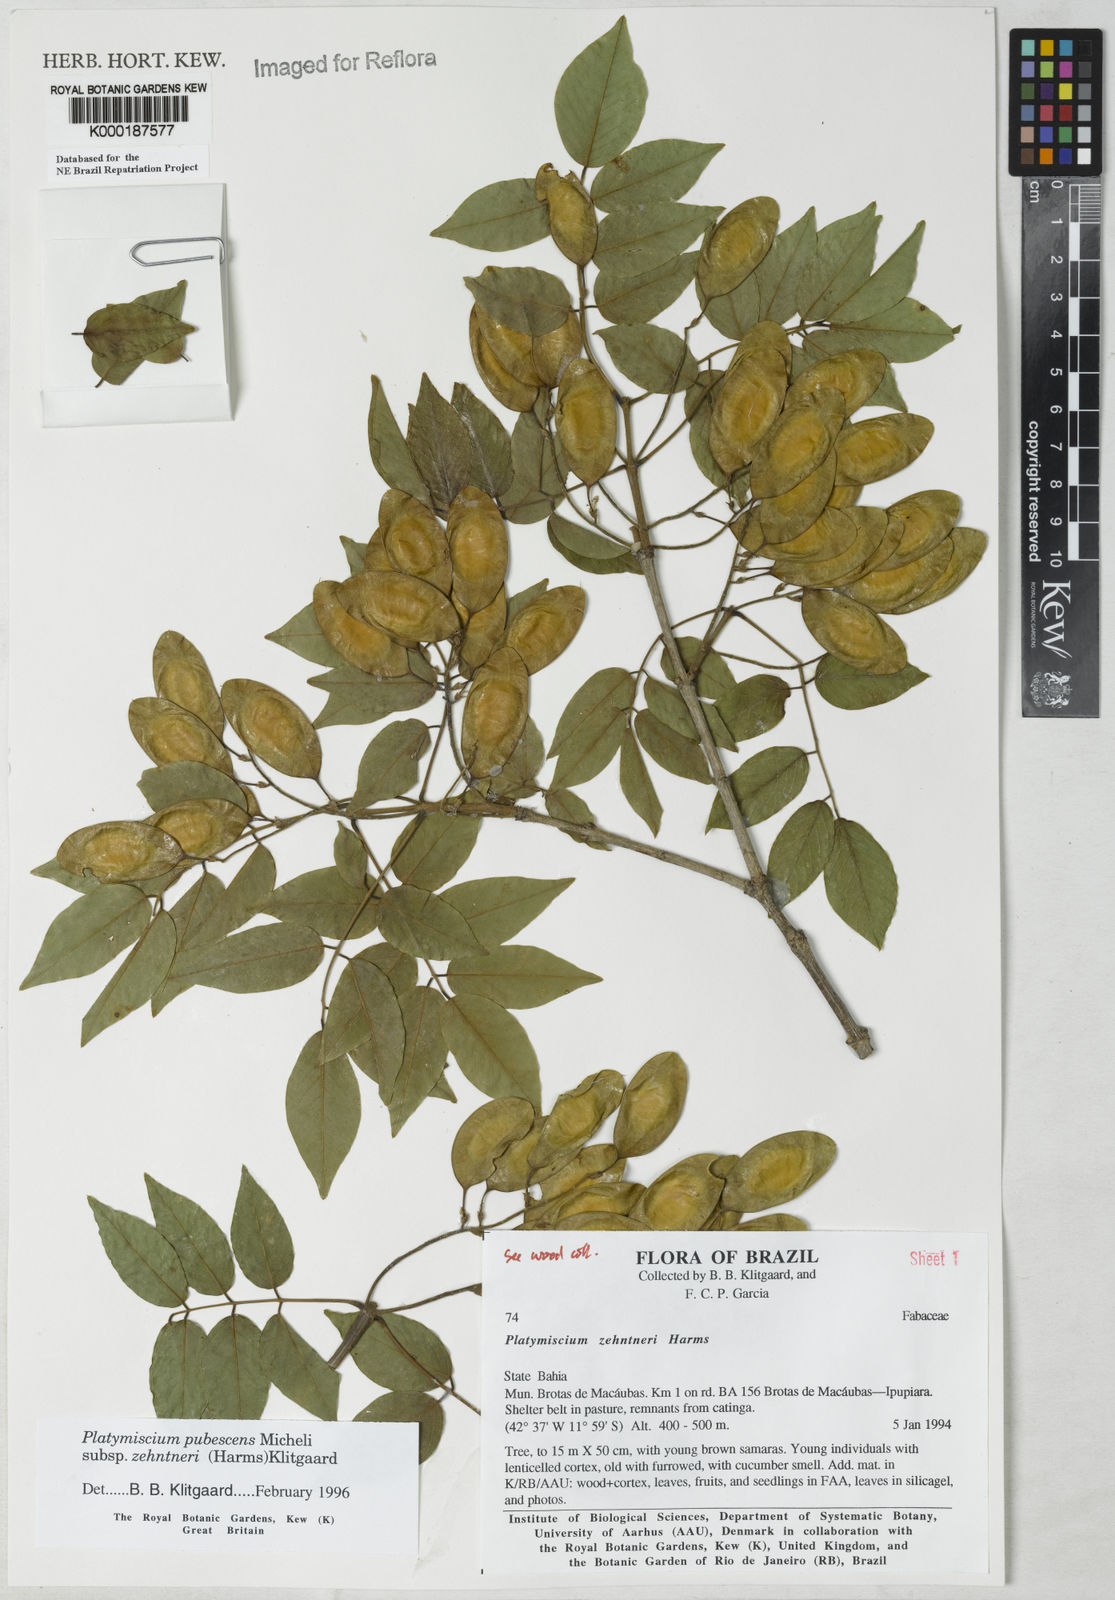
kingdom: Plantae
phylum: Tracheophyta
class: Magnoliopsida
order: Fabales
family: Fabaceae
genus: Platymiscium
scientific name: Platymiscium pubescens
